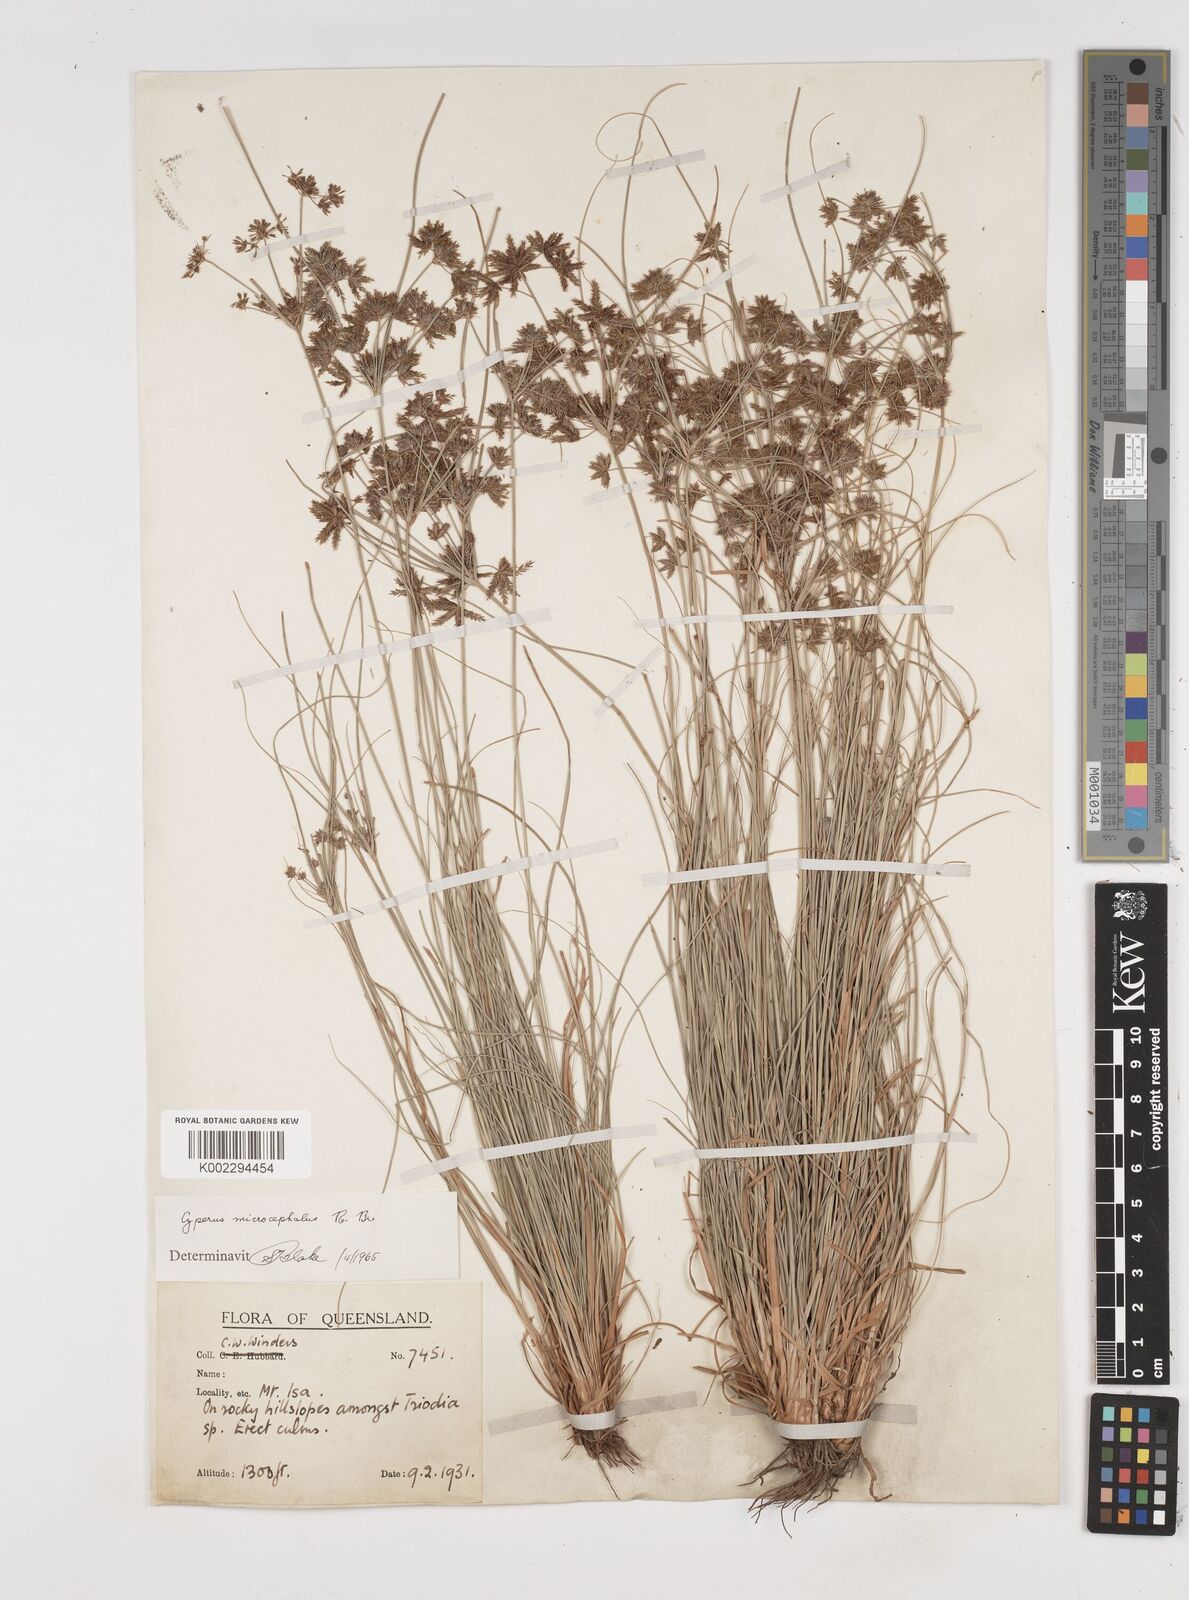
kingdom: Plantae
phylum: Tracheophyta
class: Liliopsida
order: Poales
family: Cyperaceae
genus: Cyperus
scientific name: Cyperus microcephalus
